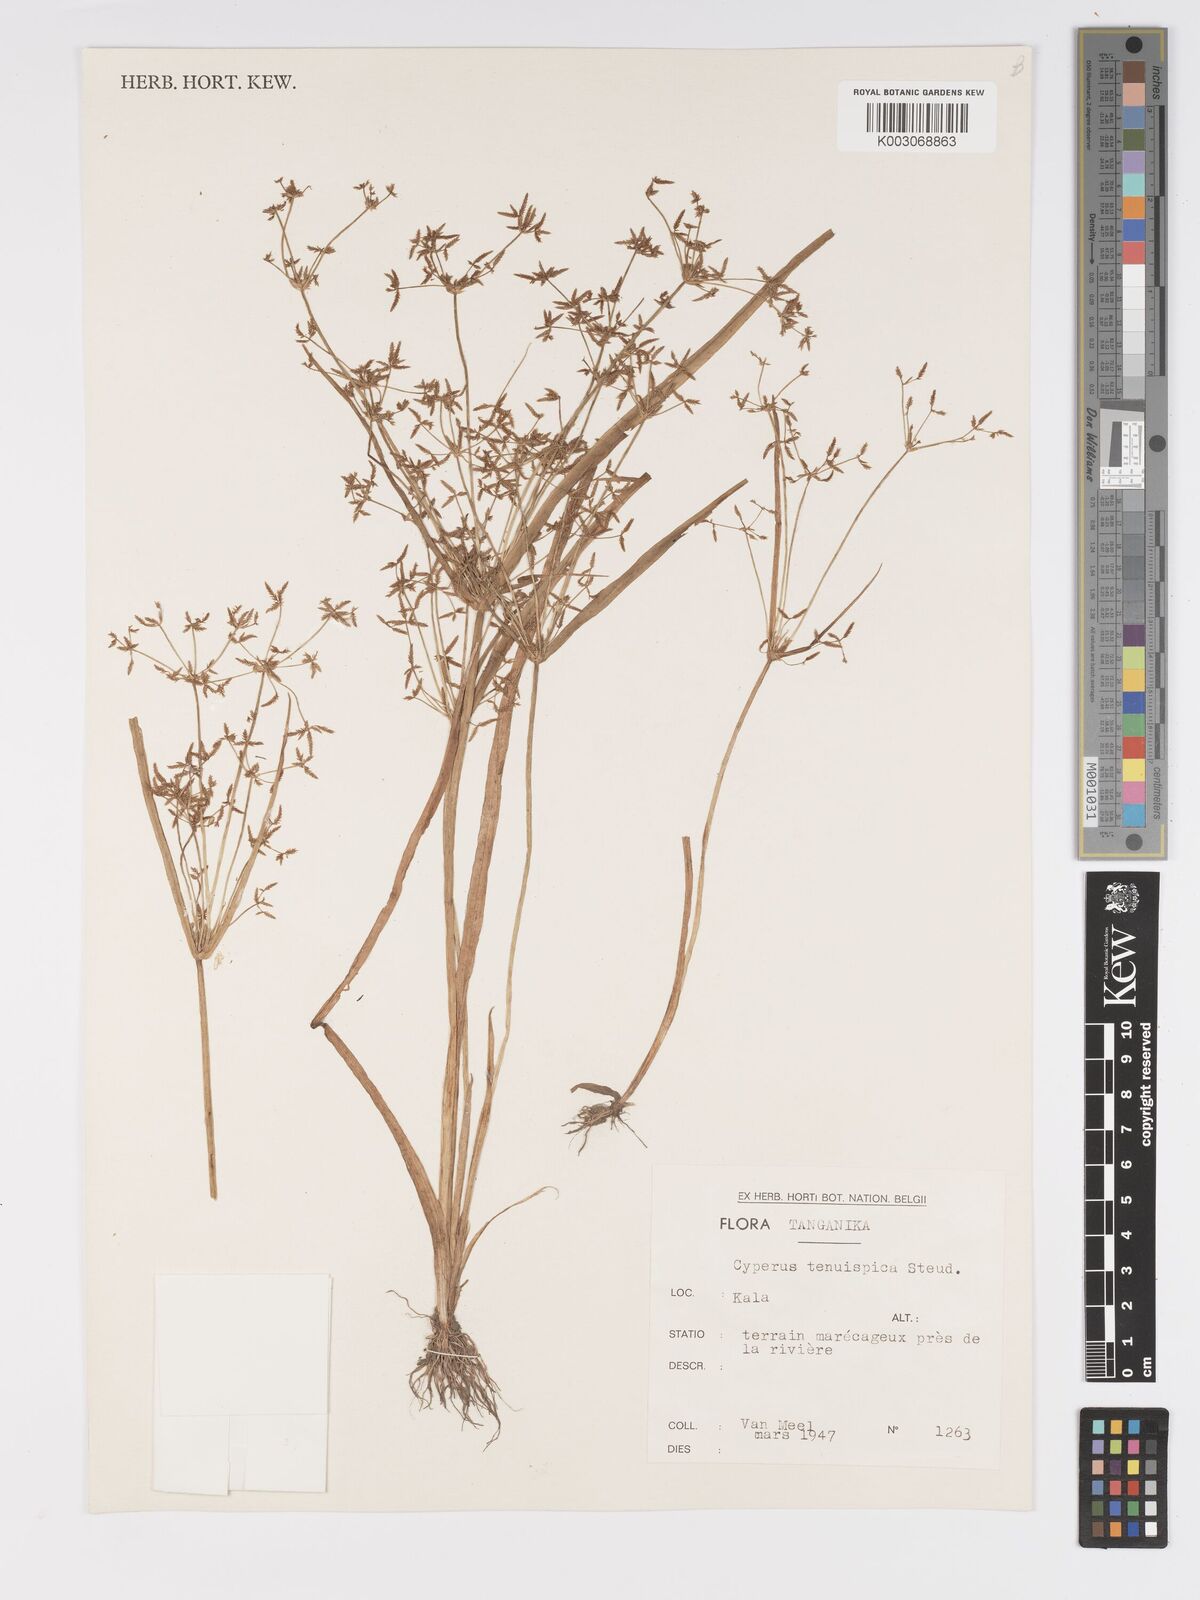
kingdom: Plantae
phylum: Tracheophyta
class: Liliopsida
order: Poales
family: Cyperaceae
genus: Cyperus
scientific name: Cyperus tenuispica
